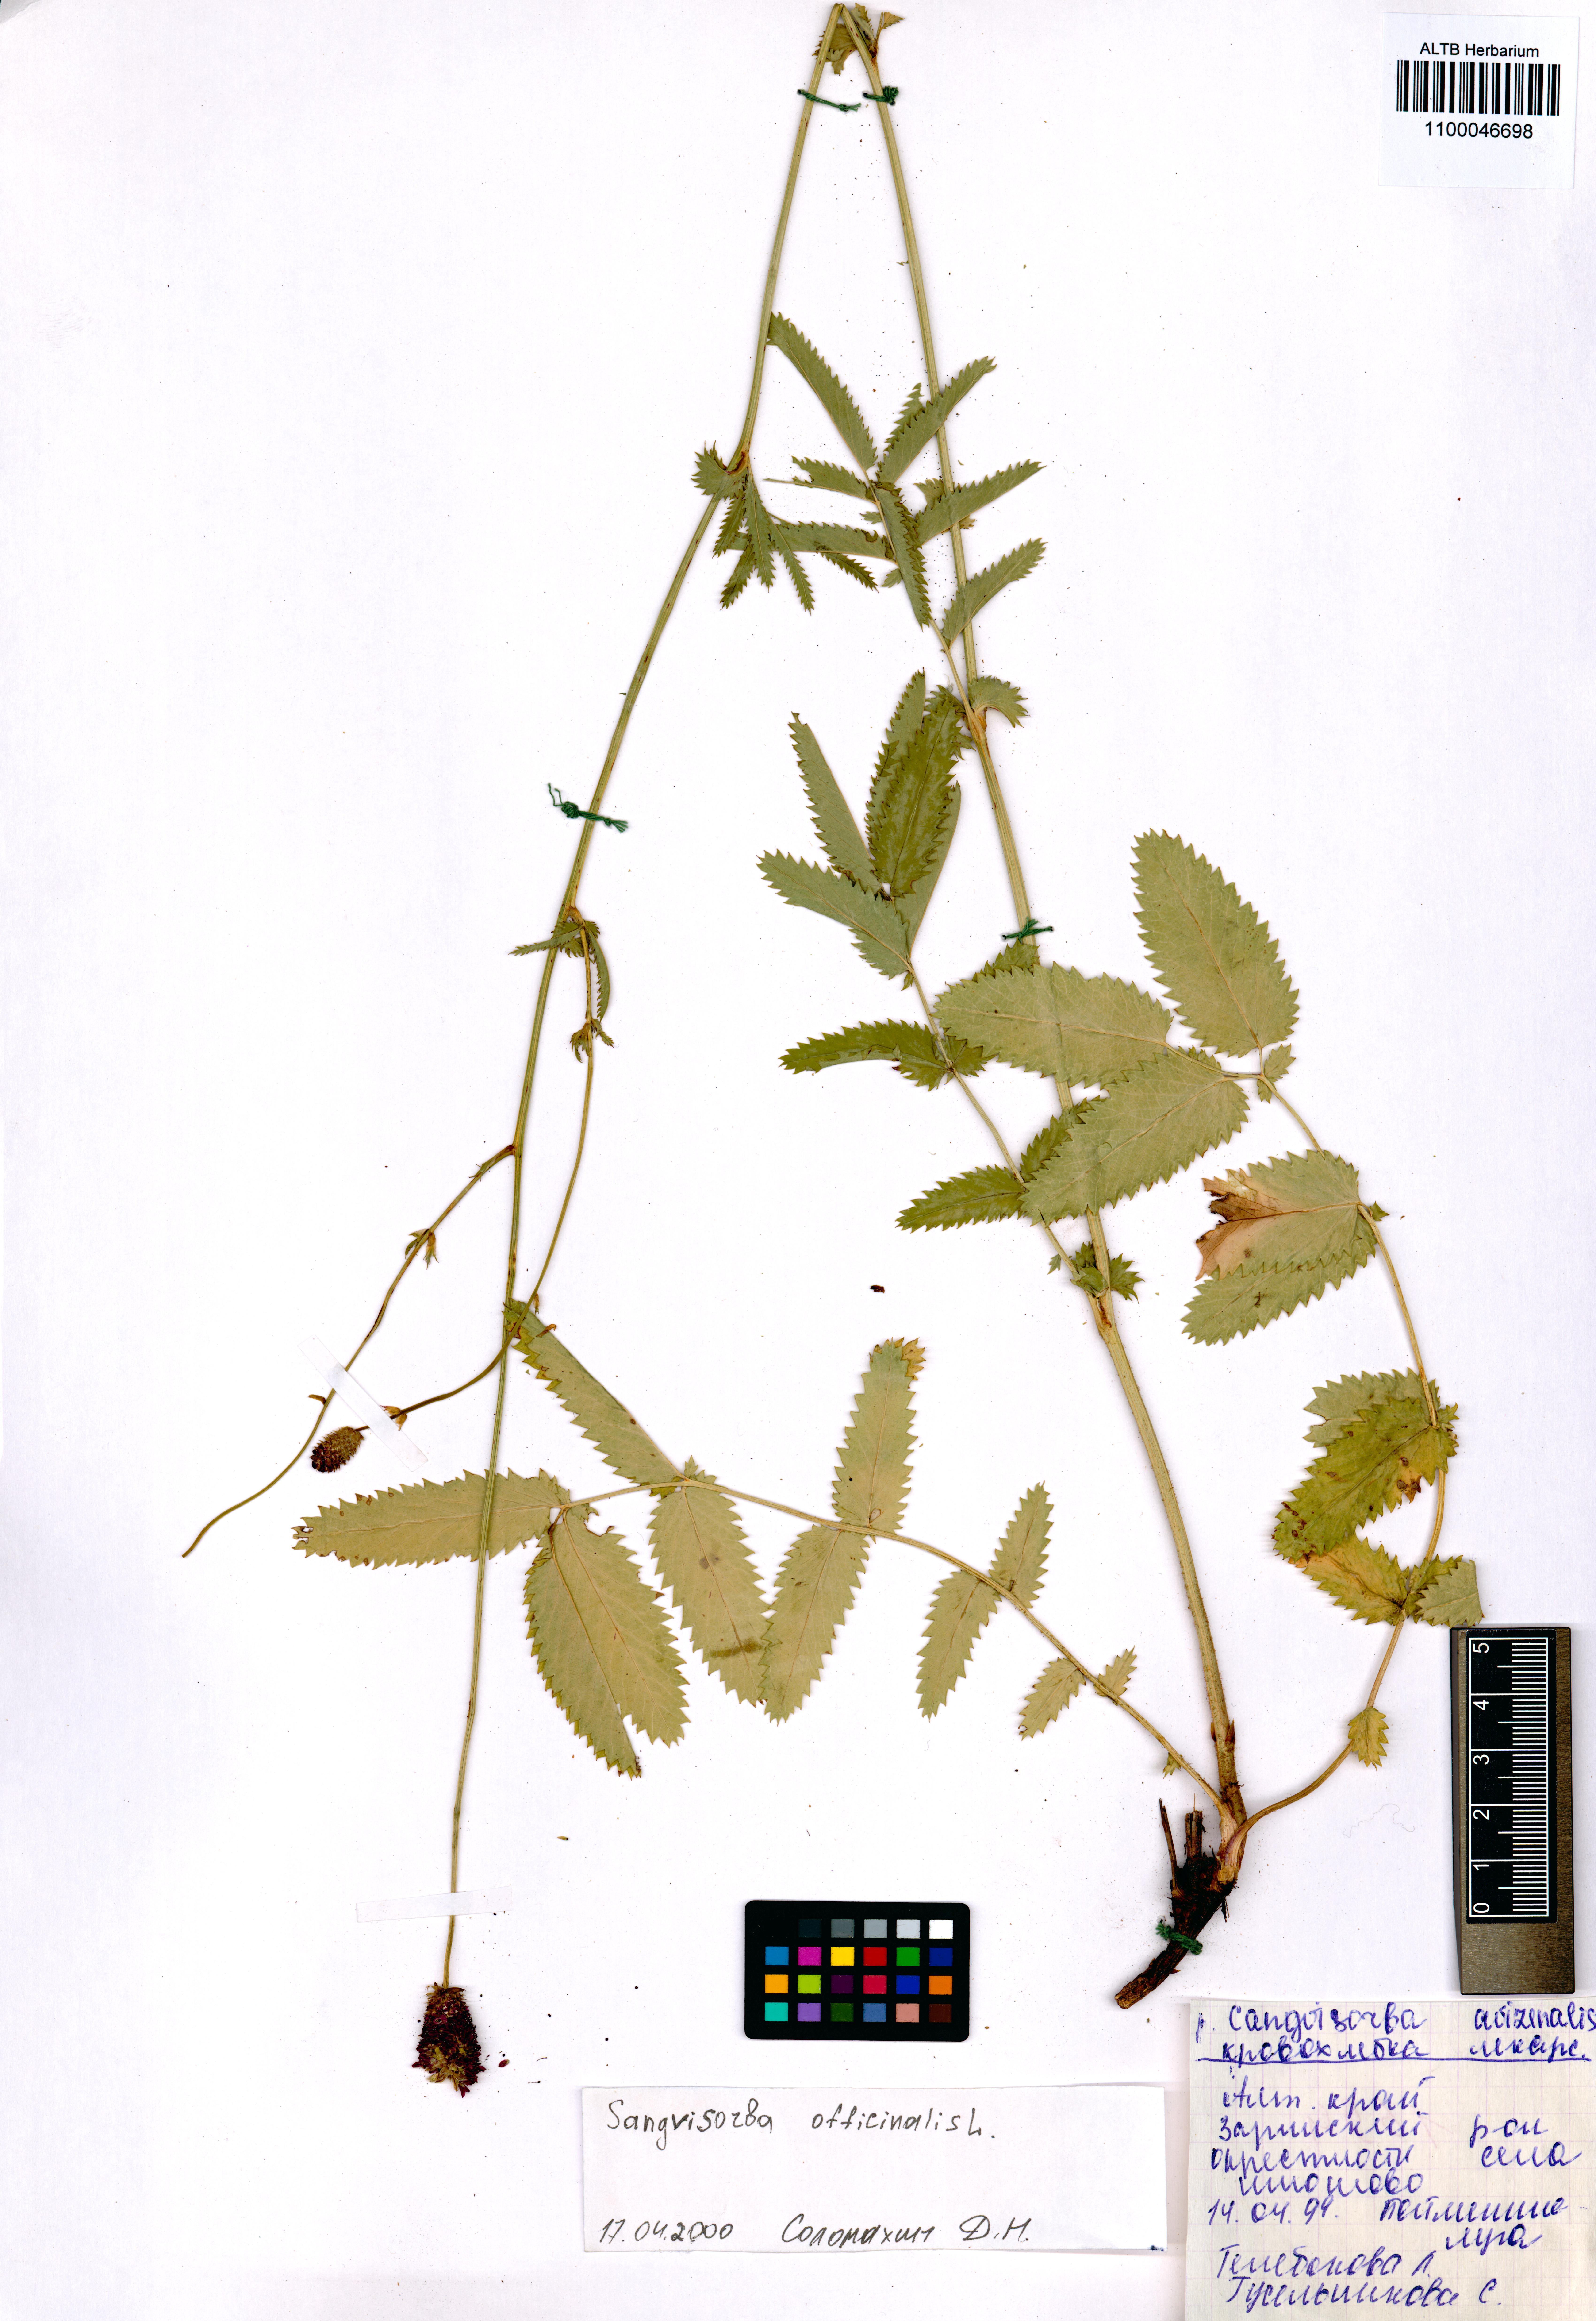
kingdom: Plantae
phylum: Tracheophyta
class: Magnoliopsida
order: Rosales
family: Rosaceae
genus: Sanguisorba
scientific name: Sanguisorba officinalis
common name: Great burnet
